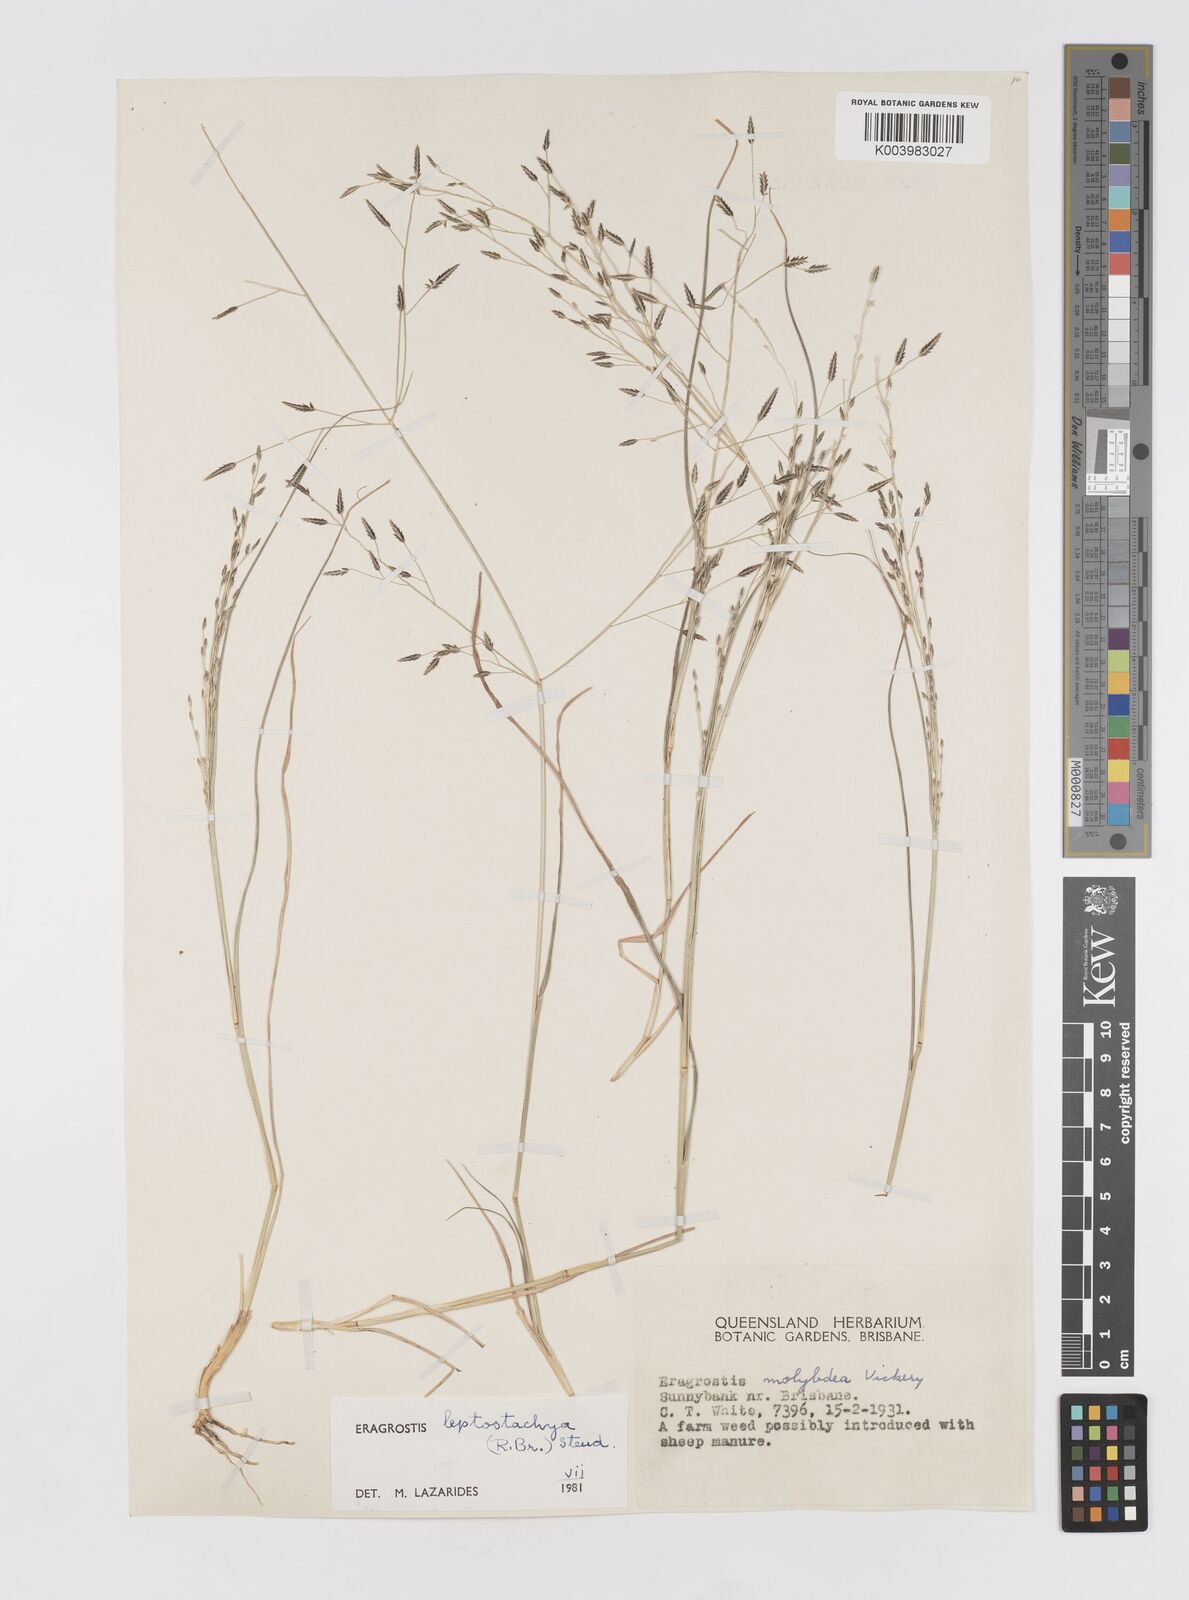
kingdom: Plantae
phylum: Tracheophyta
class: Liliopsida
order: Poales
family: Poaceae
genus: Eragrostis
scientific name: Eragrostis leptostachya
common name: Australian lovegrass
